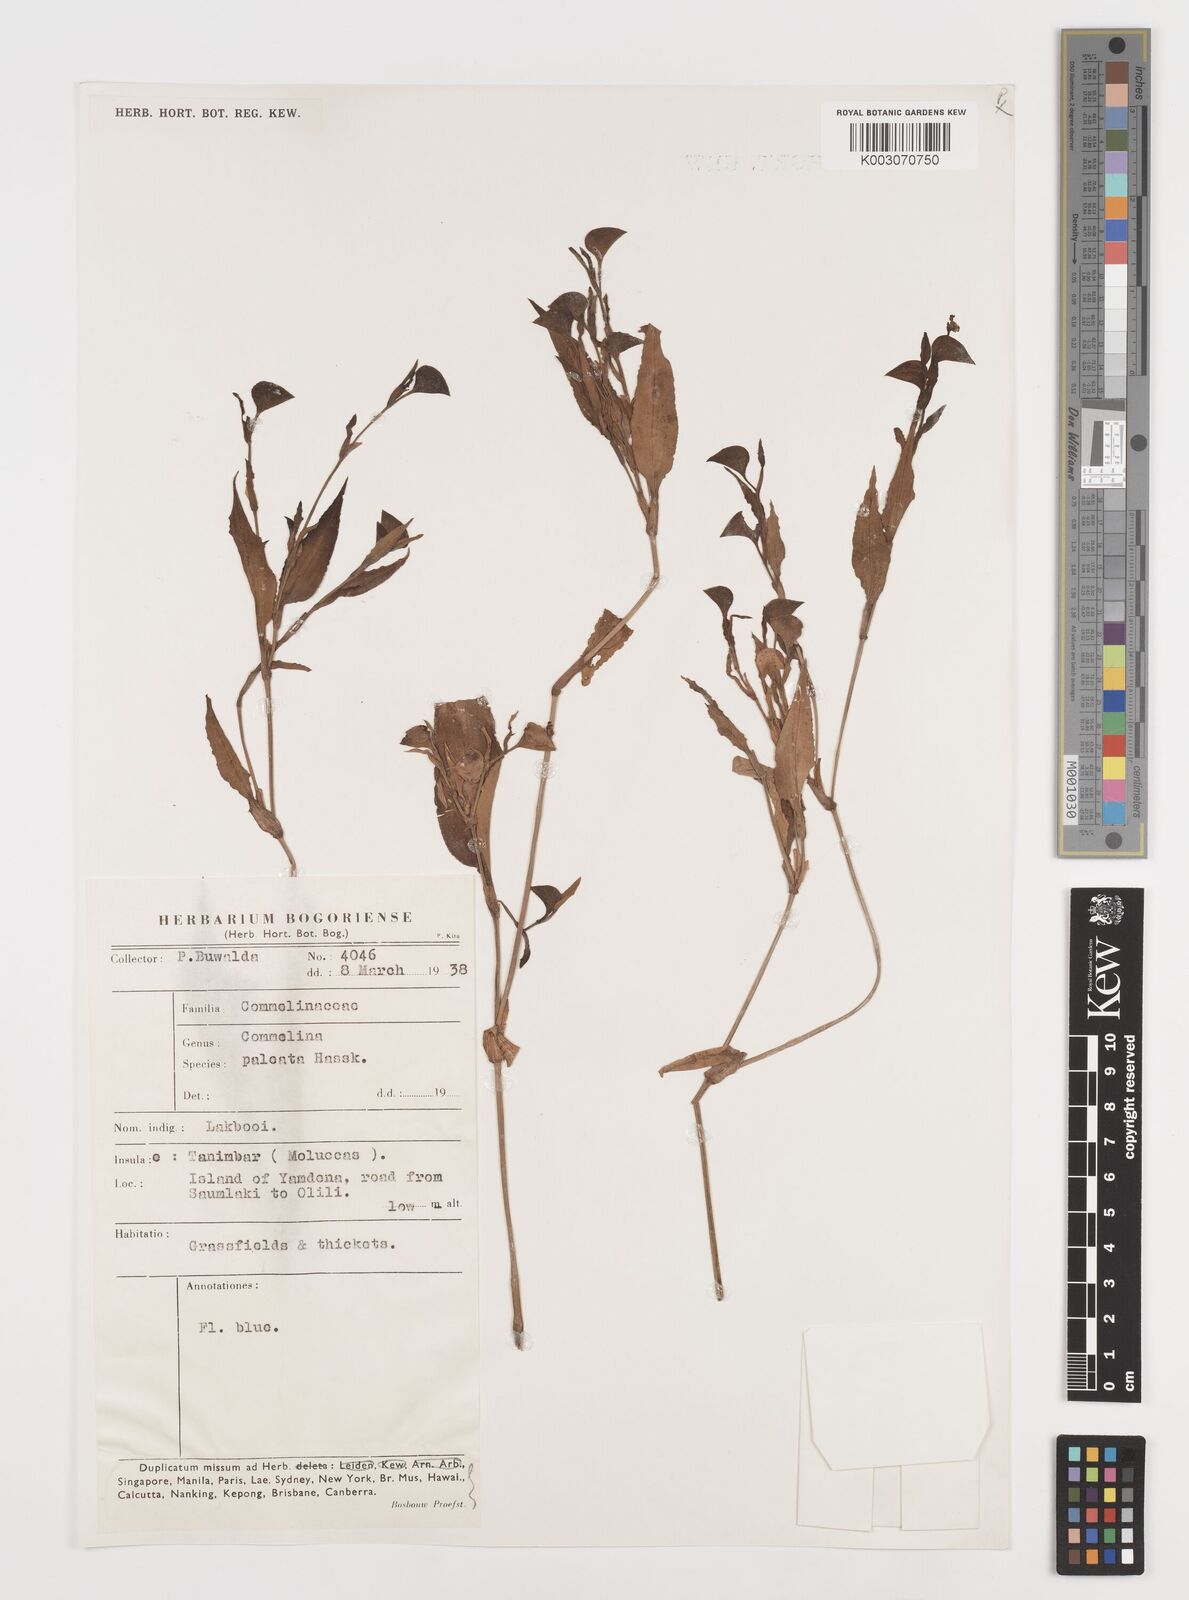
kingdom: Plantae
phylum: Tracheophyta
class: Liliopsida
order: Commelinales
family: Commelinaceae
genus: Commelina
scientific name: Commelina paleata
